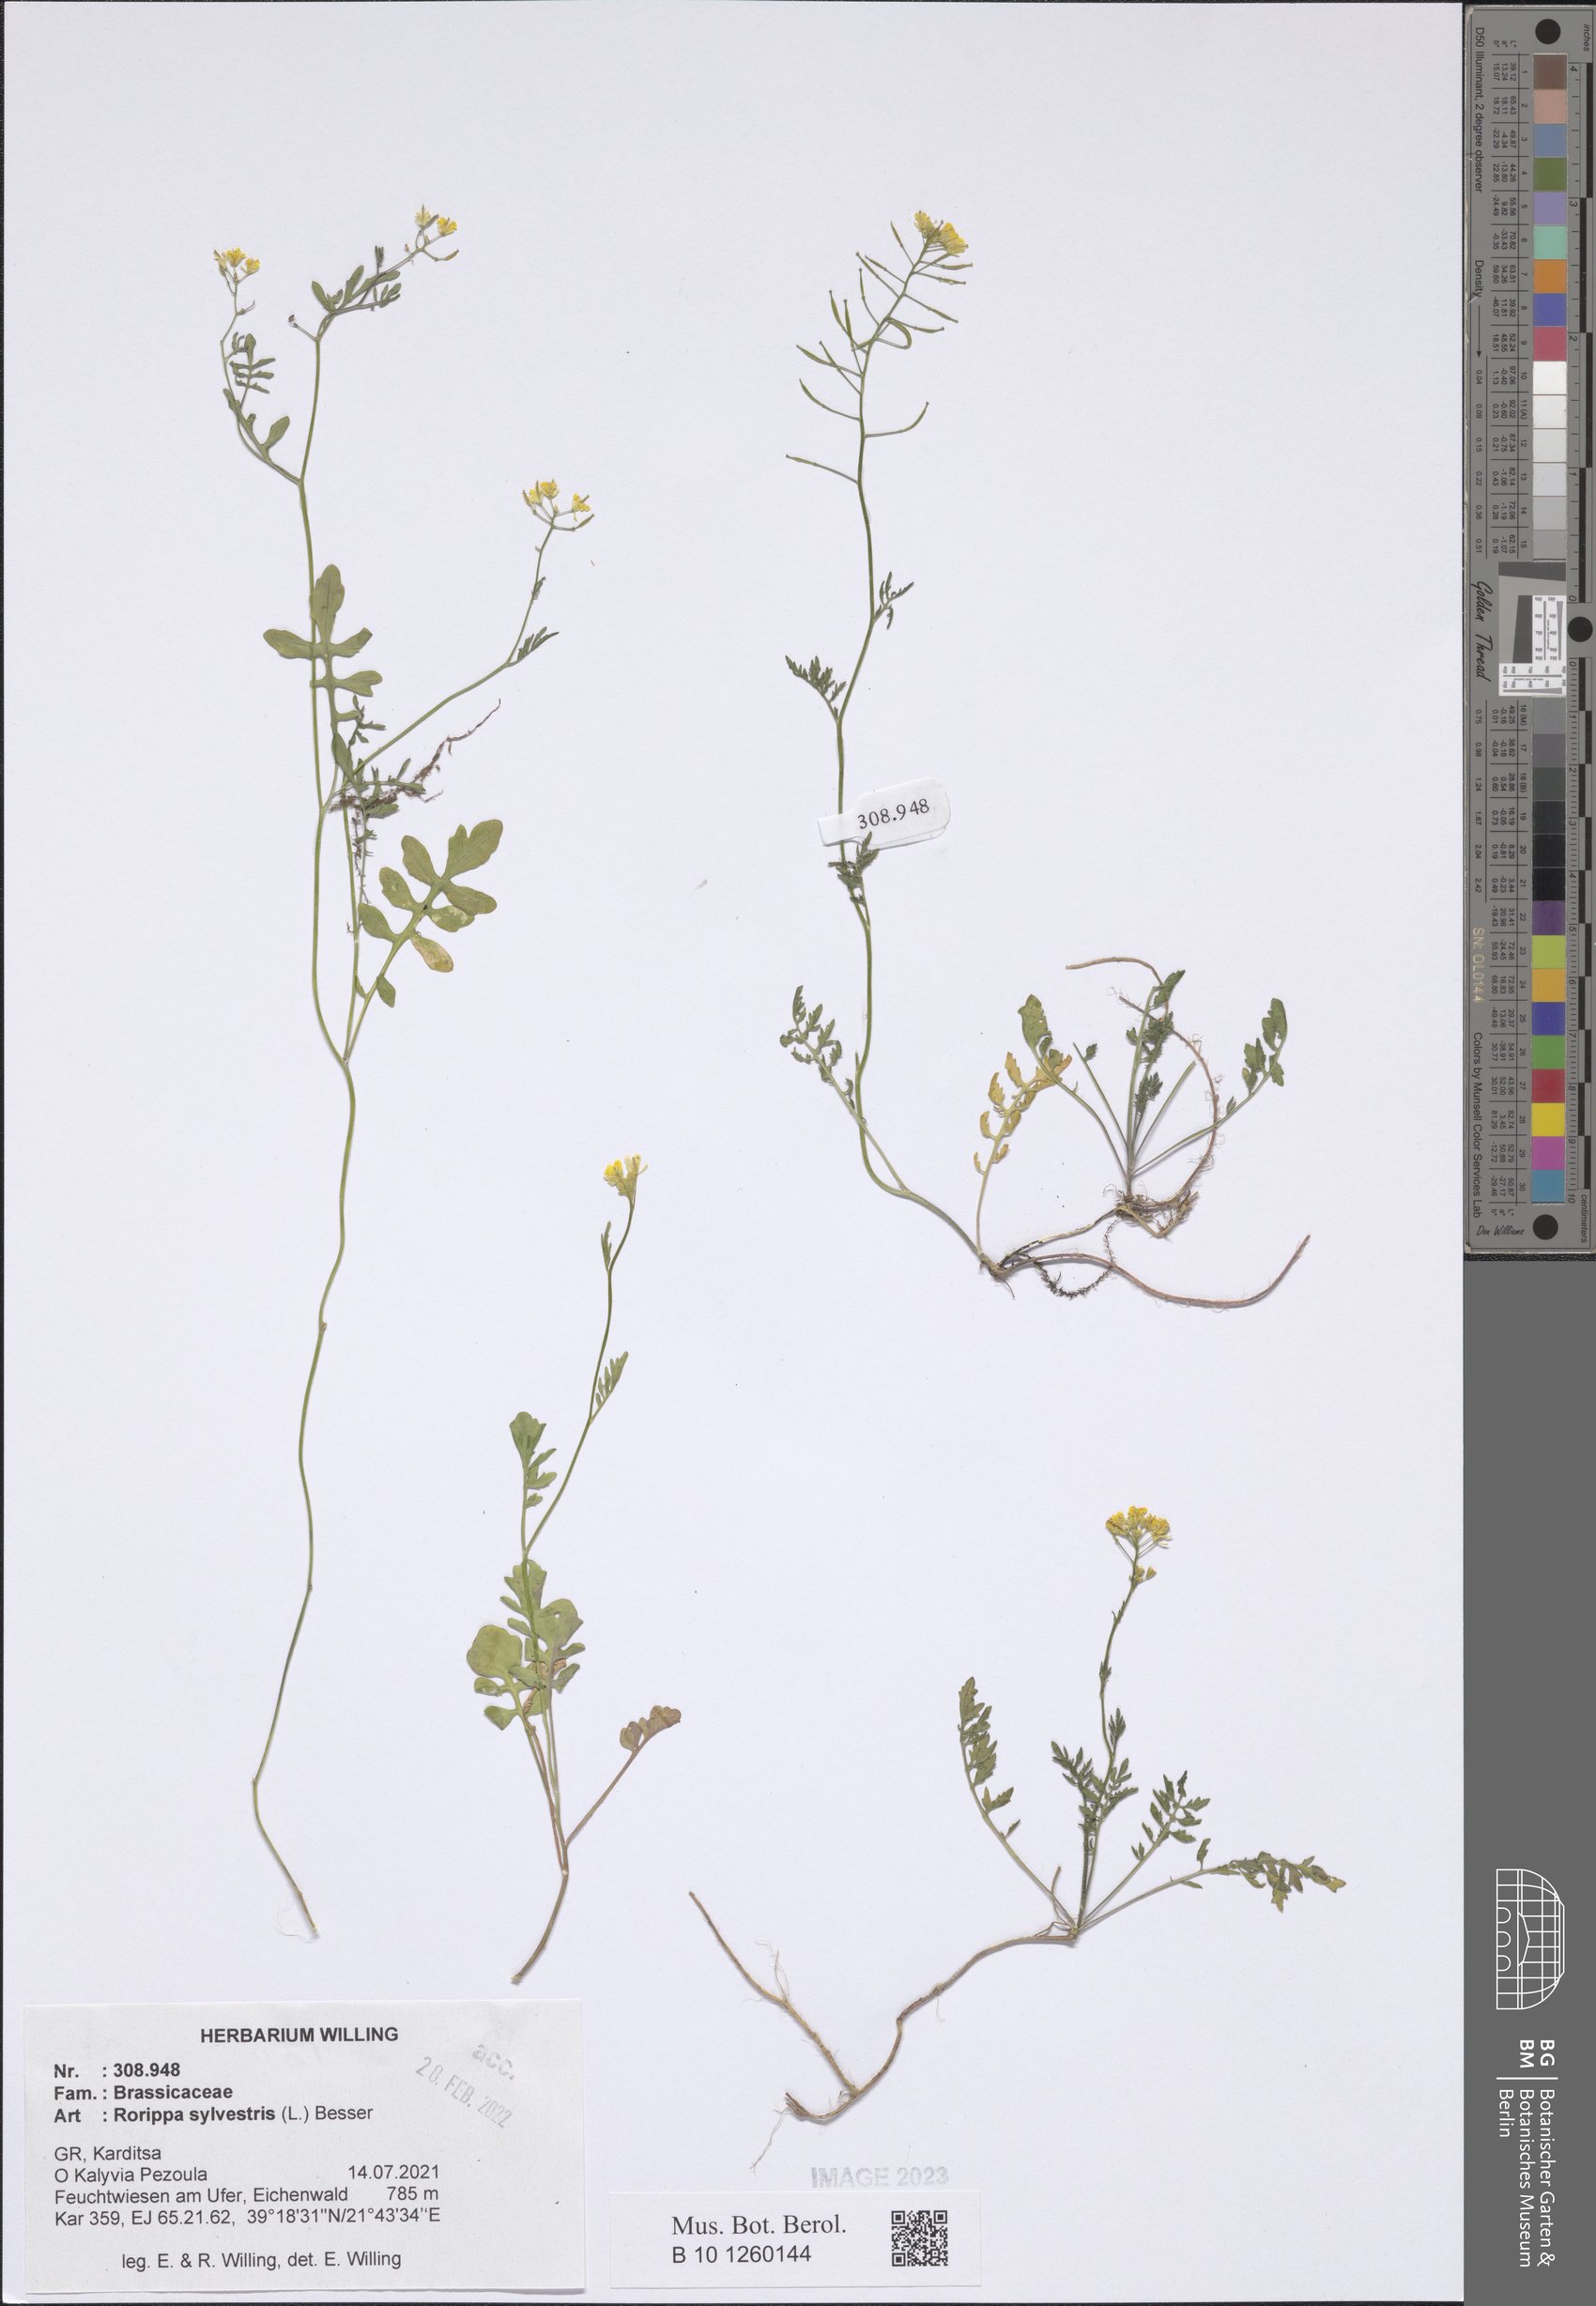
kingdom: Plantae
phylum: Tracheophyta
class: Magnoliopsida
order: Brassicales
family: Brassicaceae
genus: Rorippa
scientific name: Rorippa sylvestris
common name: Creeping yellowcress
